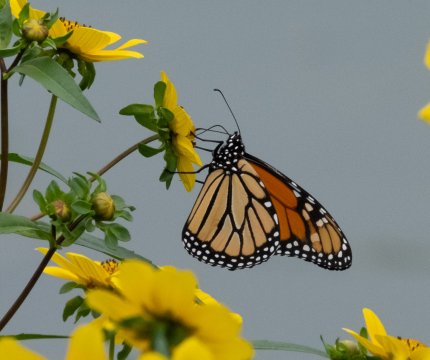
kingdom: Animalia
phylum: Arthropoda
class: Insecta
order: Lepidoptera
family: Nymphalidae
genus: Danaus
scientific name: Danaus plexippus
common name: Monarch
